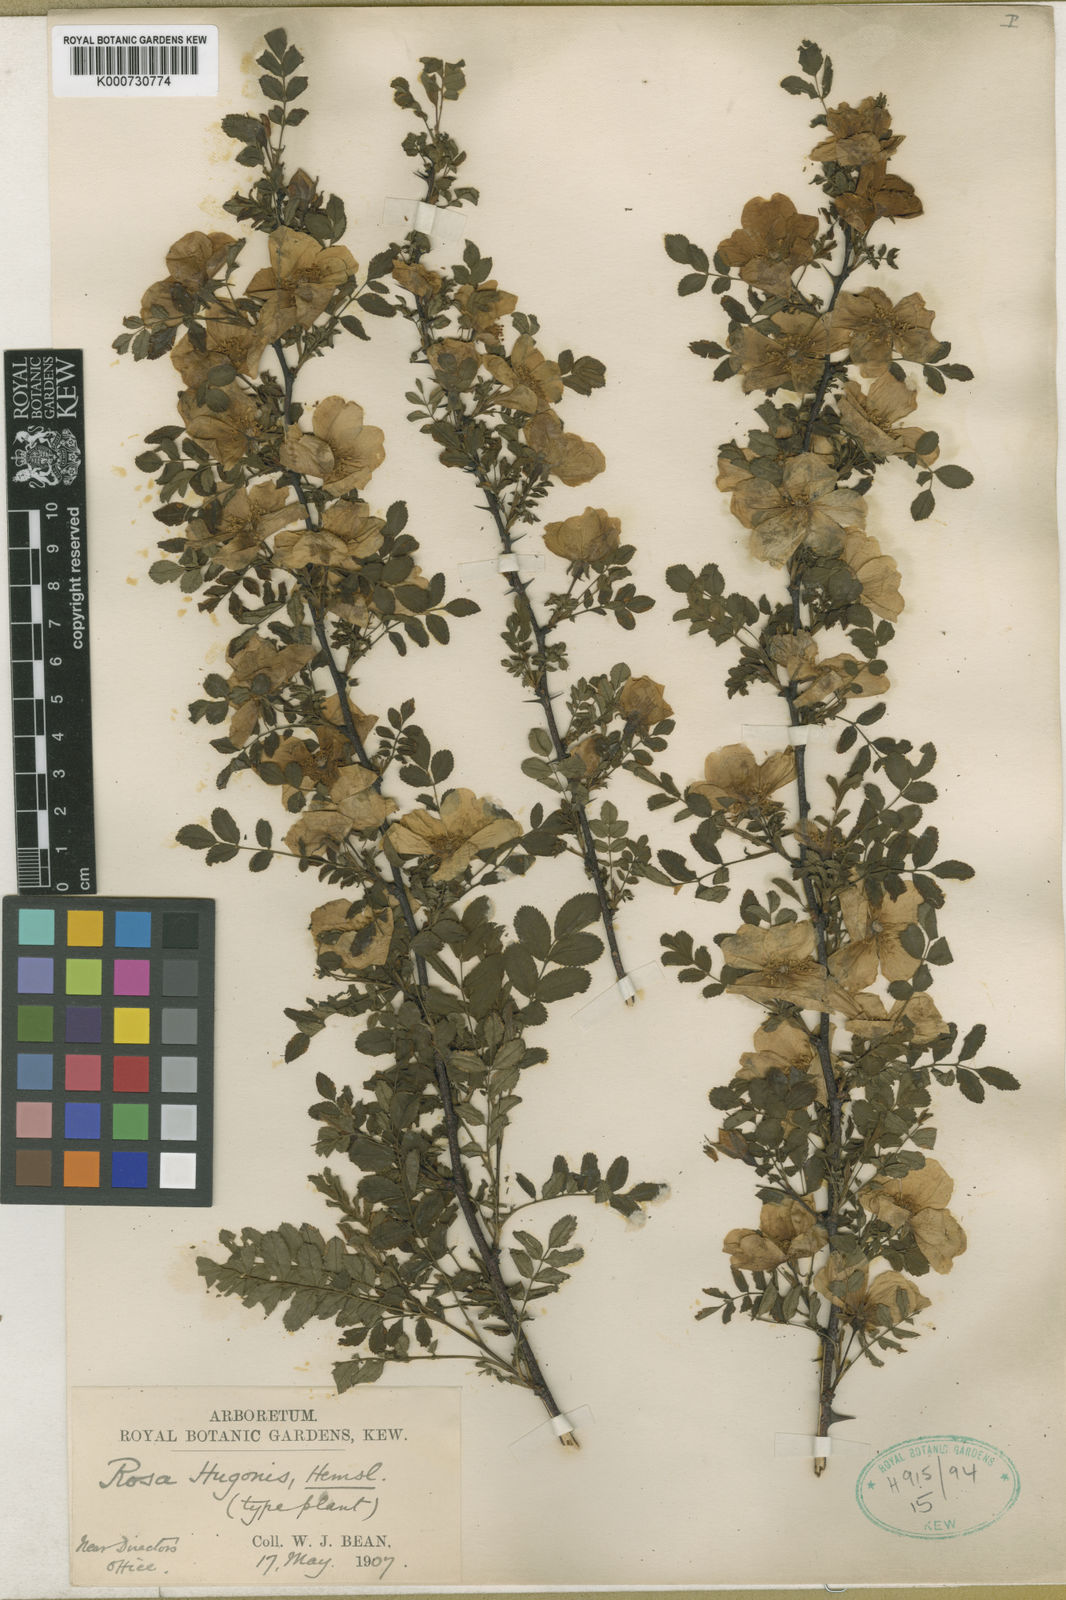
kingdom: Plantae
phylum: Tracheophyta
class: Magnoliopsida
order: Rosales
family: Rosaceae
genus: Rosa
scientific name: Rosa xanthina
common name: Yellow rose
